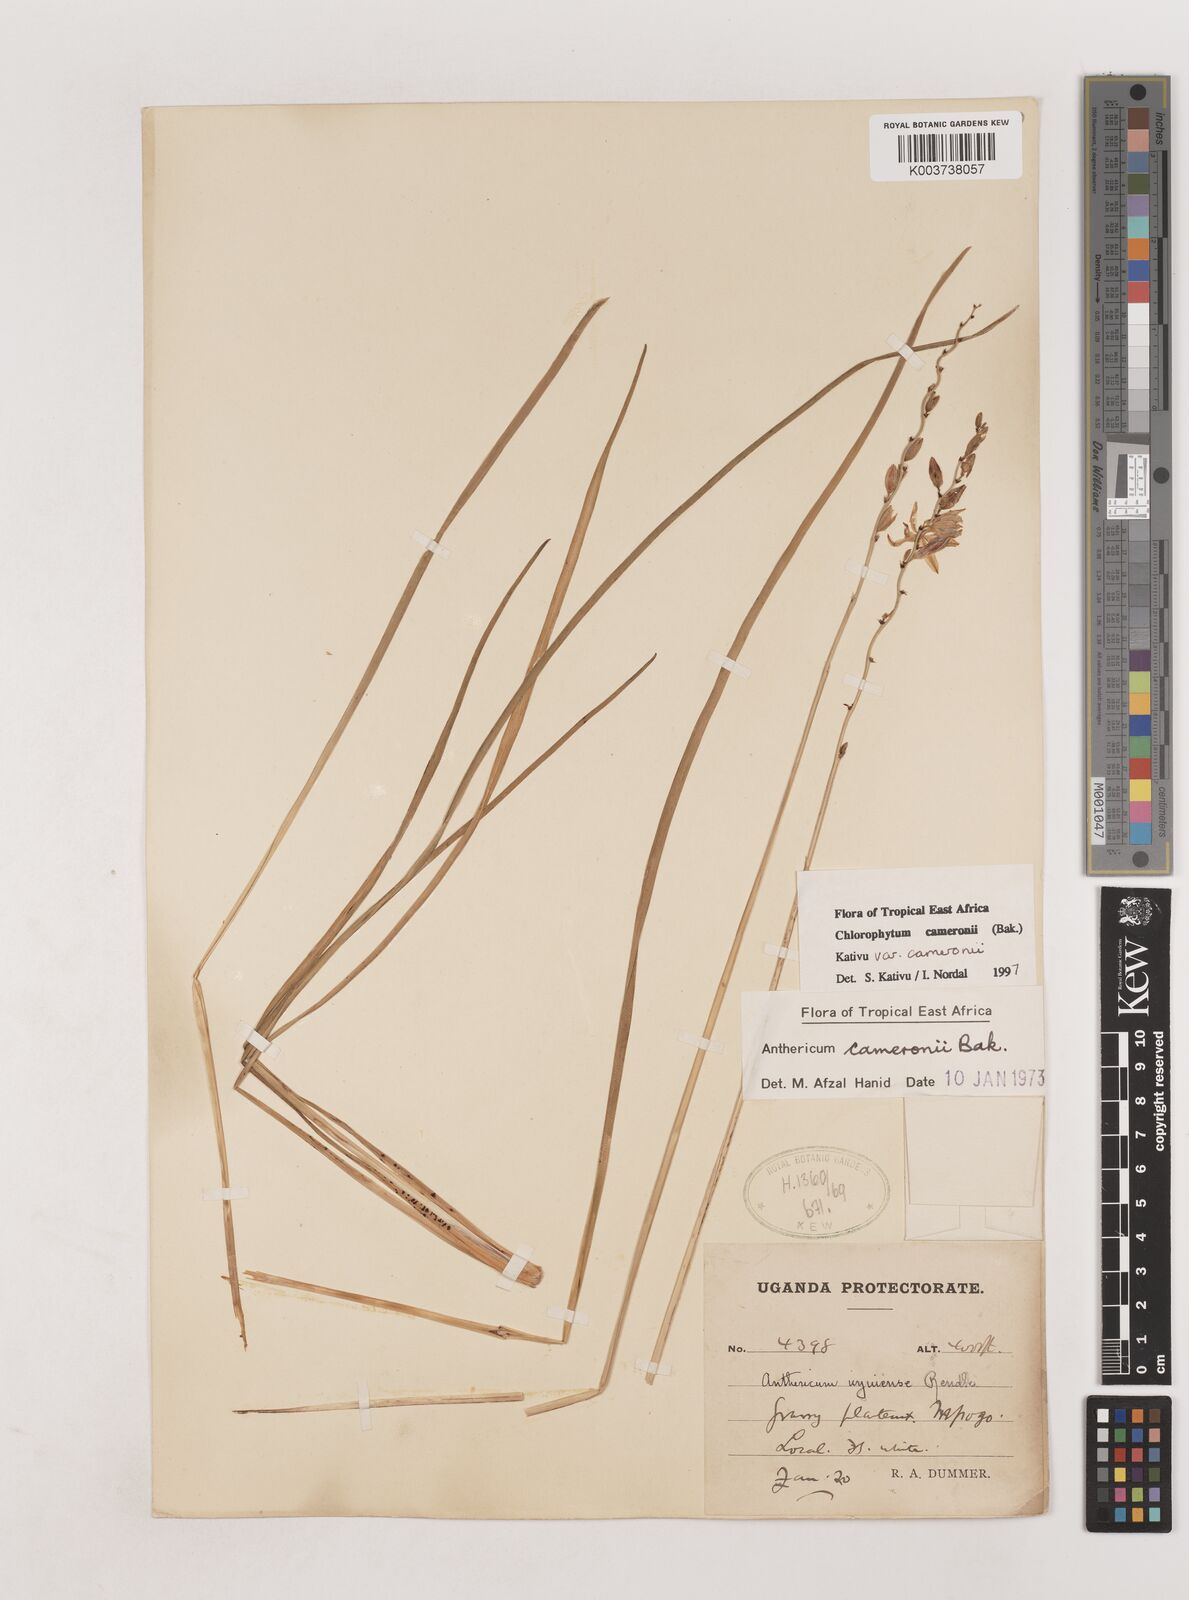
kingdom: Plantae
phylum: Tracheophyta
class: Liliopsida
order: Asparagales
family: Asparagaceae
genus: Chlorophytum
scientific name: Chlorophytum cameronii
